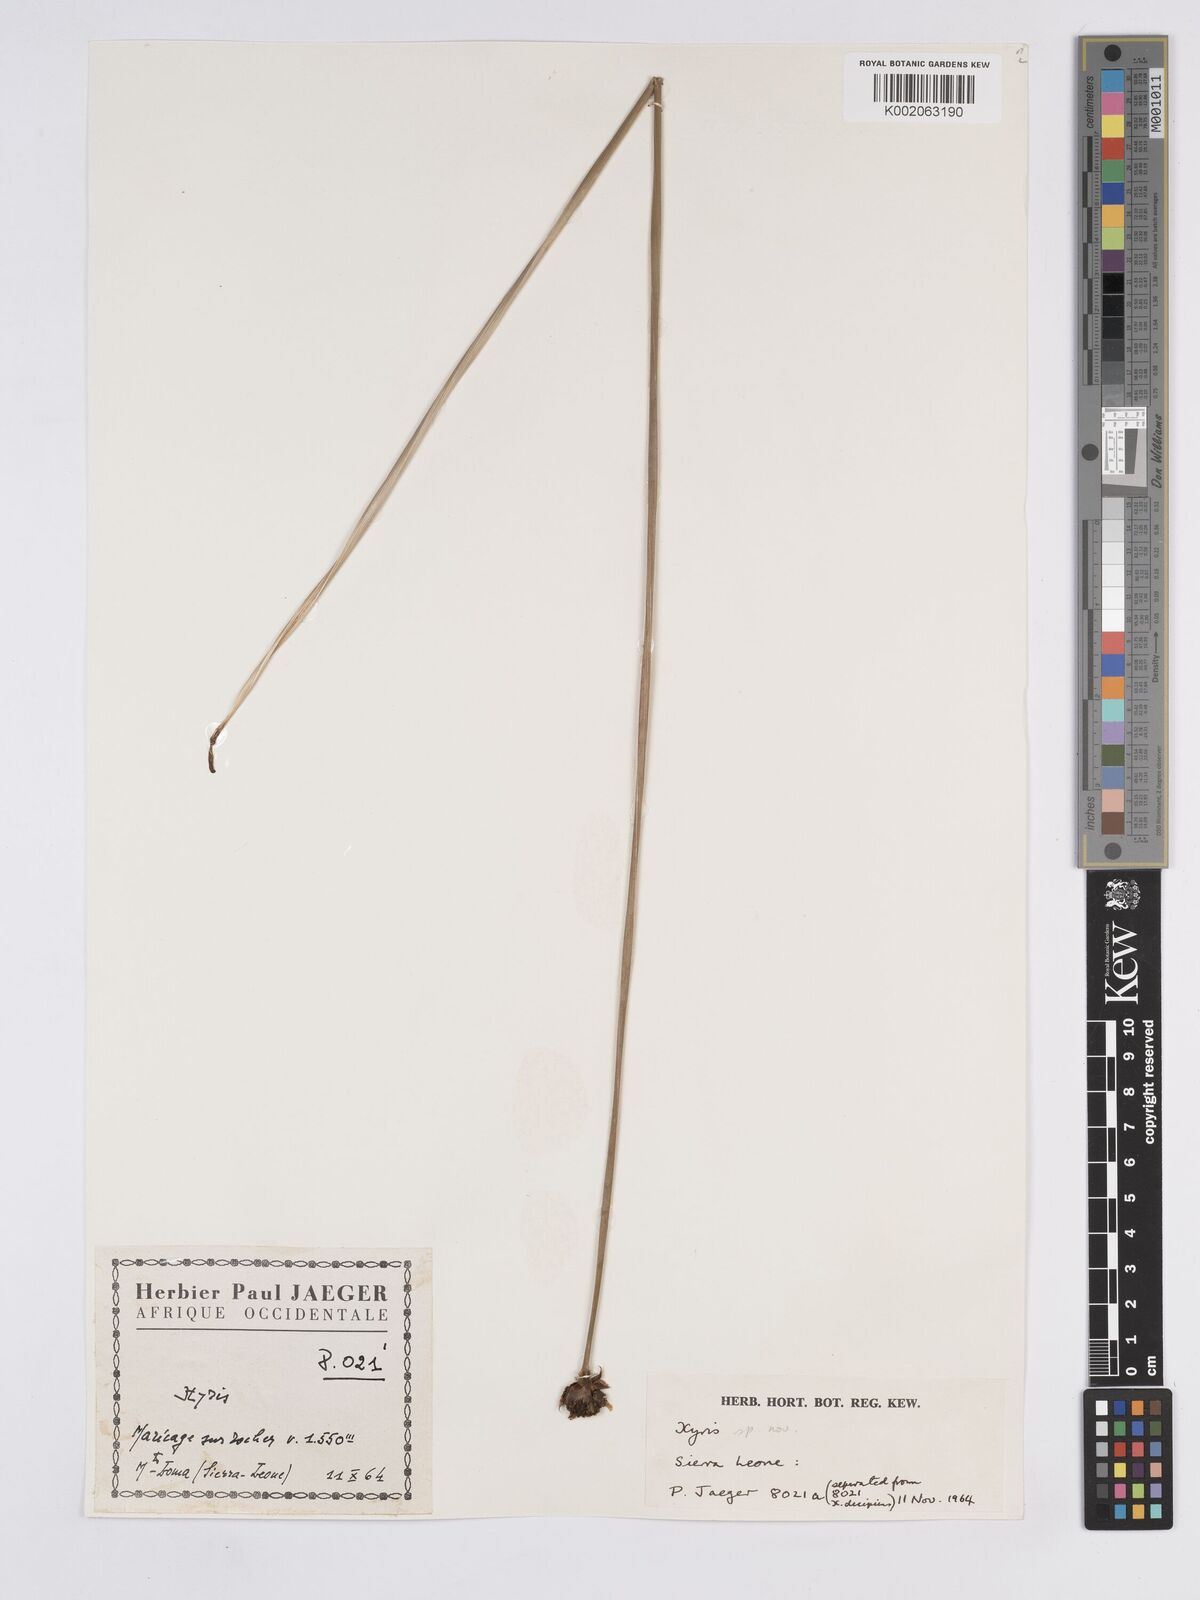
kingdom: Plantae
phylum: Tracheophyta
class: Liliopsida
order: Poales
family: Xyridaceae
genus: Xyris
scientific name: Xyris leonensis
